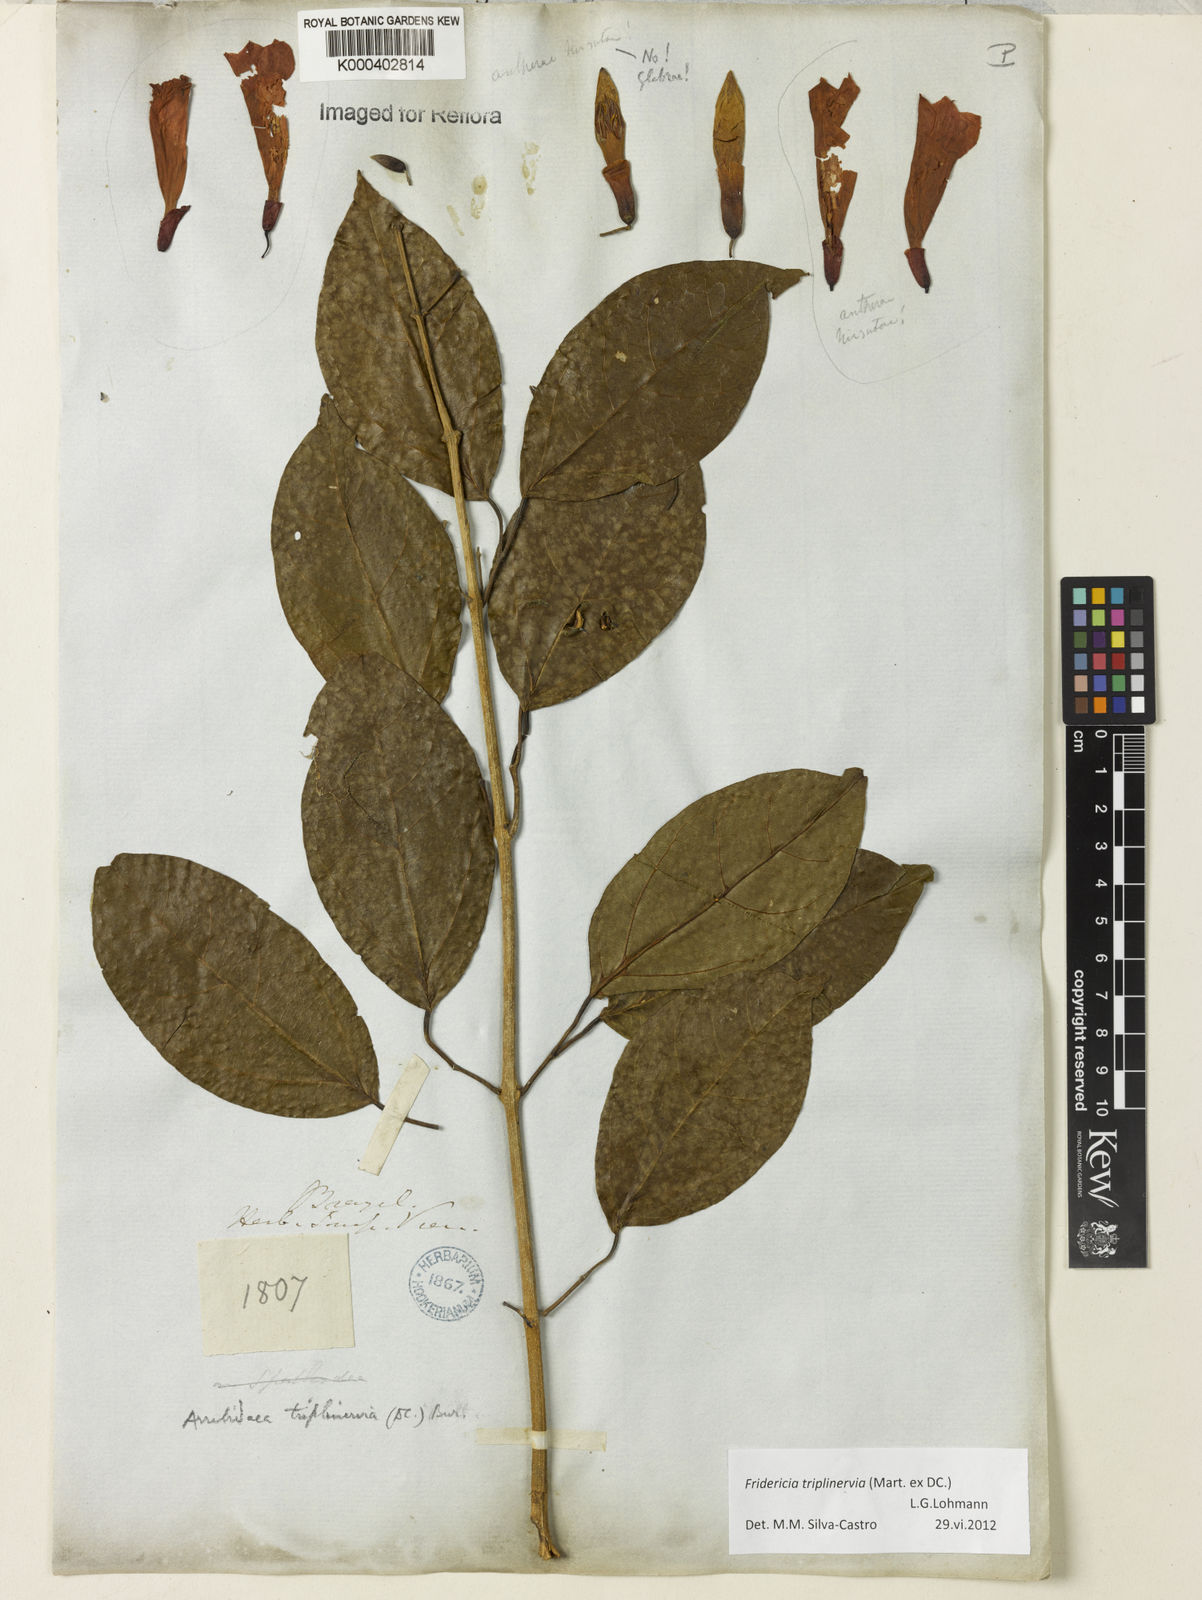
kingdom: Plantae
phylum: Tracheophyta
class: Magnoliopsida
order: Lamiales
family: Bignoniaceae
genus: Fridericia
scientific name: Fridericia triplinervia
